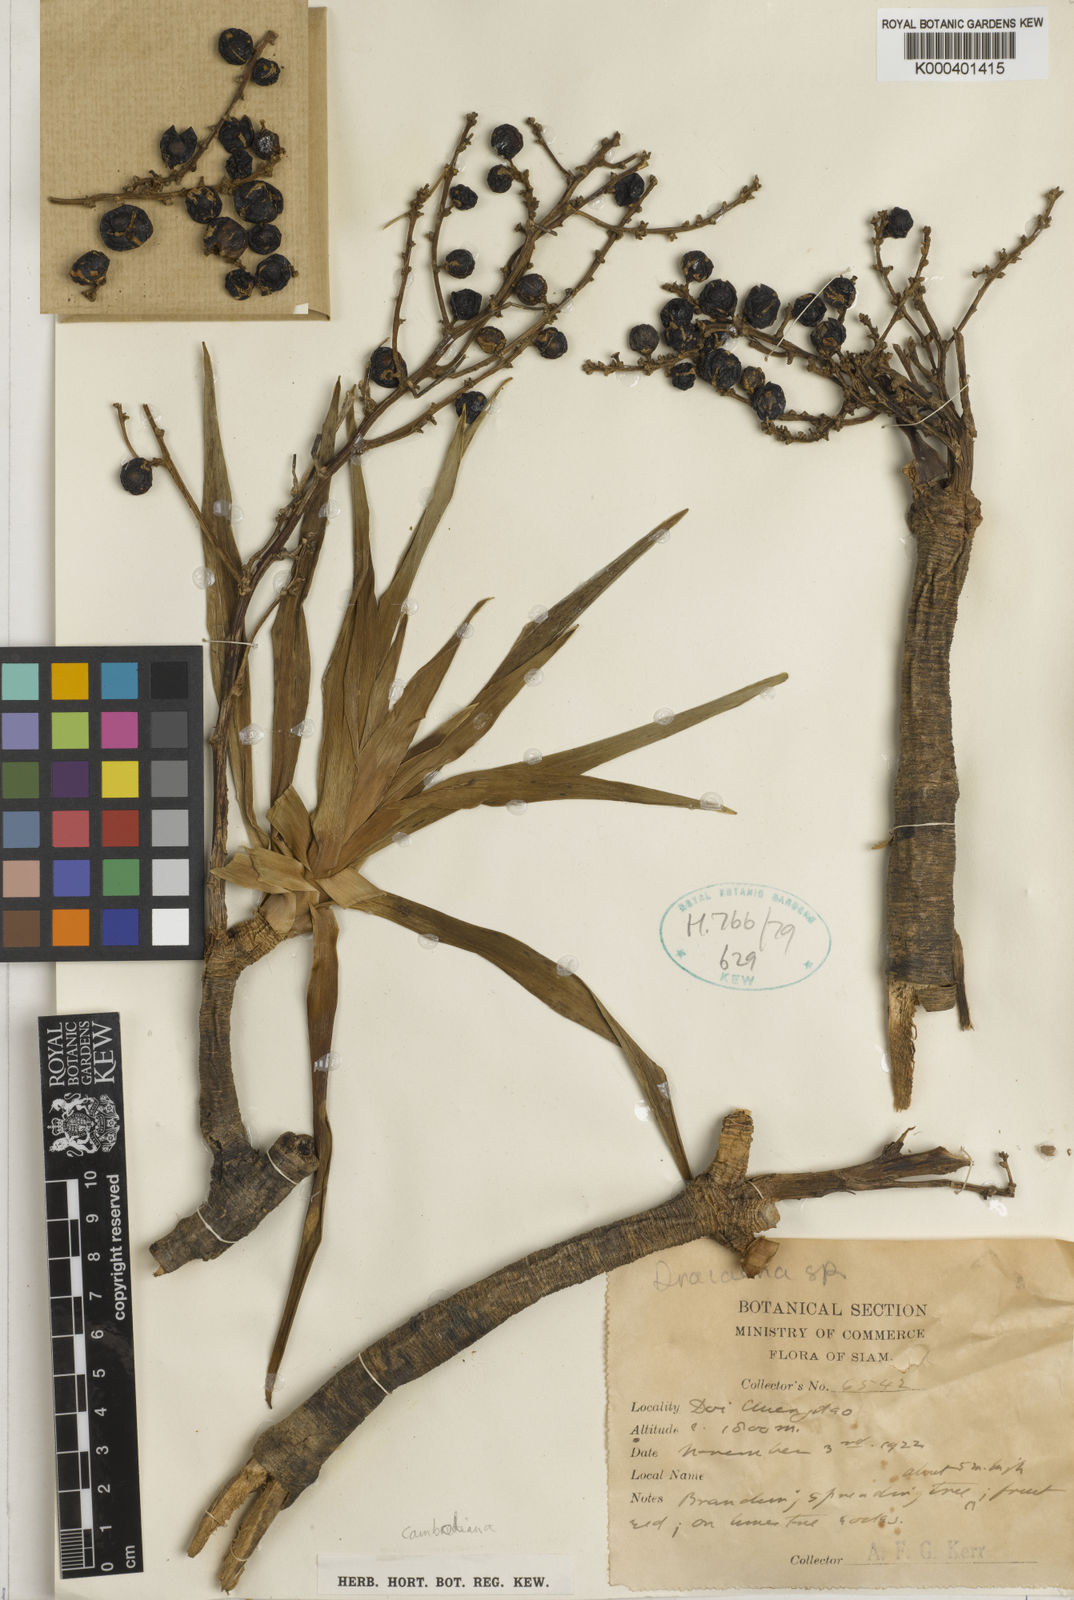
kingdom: Plantae
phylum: Tracheophyta
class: Liliopsida
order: Asparagales
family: Asparagaceae
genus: Dracaena
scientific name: Dracaena cambodiana
